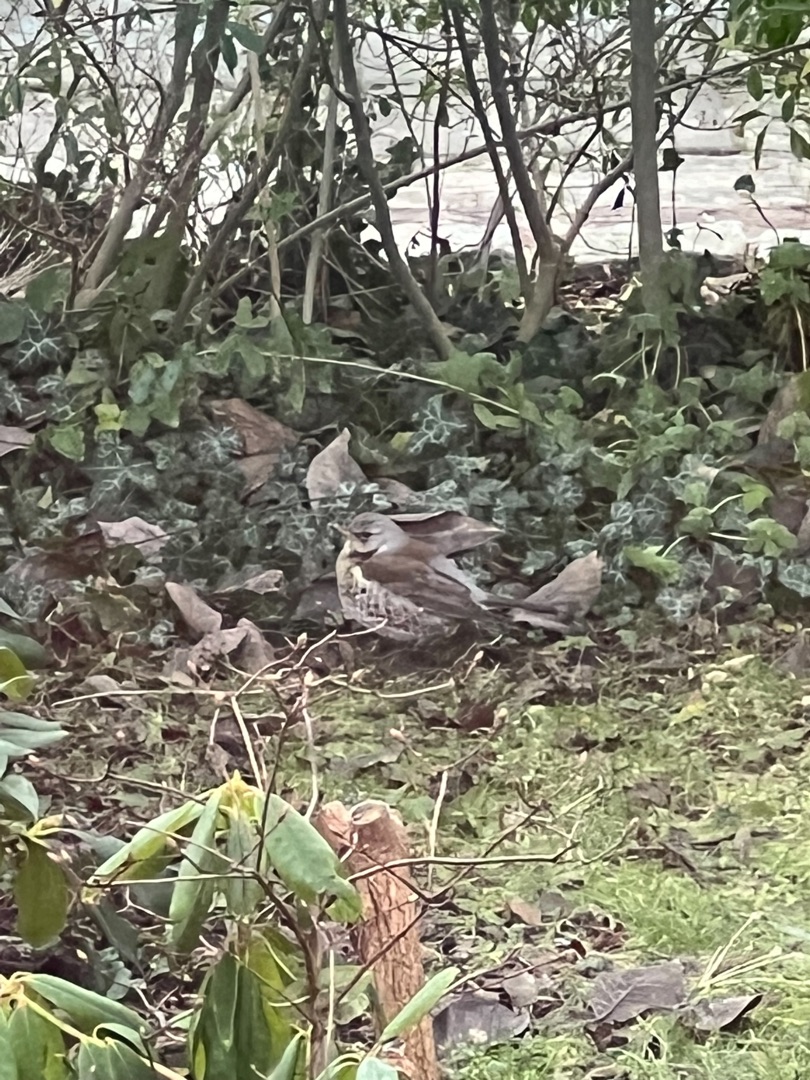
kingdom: Animalia
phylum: Chordata
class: Aves
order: Passeriformes
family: Turdidae
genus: Turdus
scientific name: Turdus pilaris
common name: Sjagger
